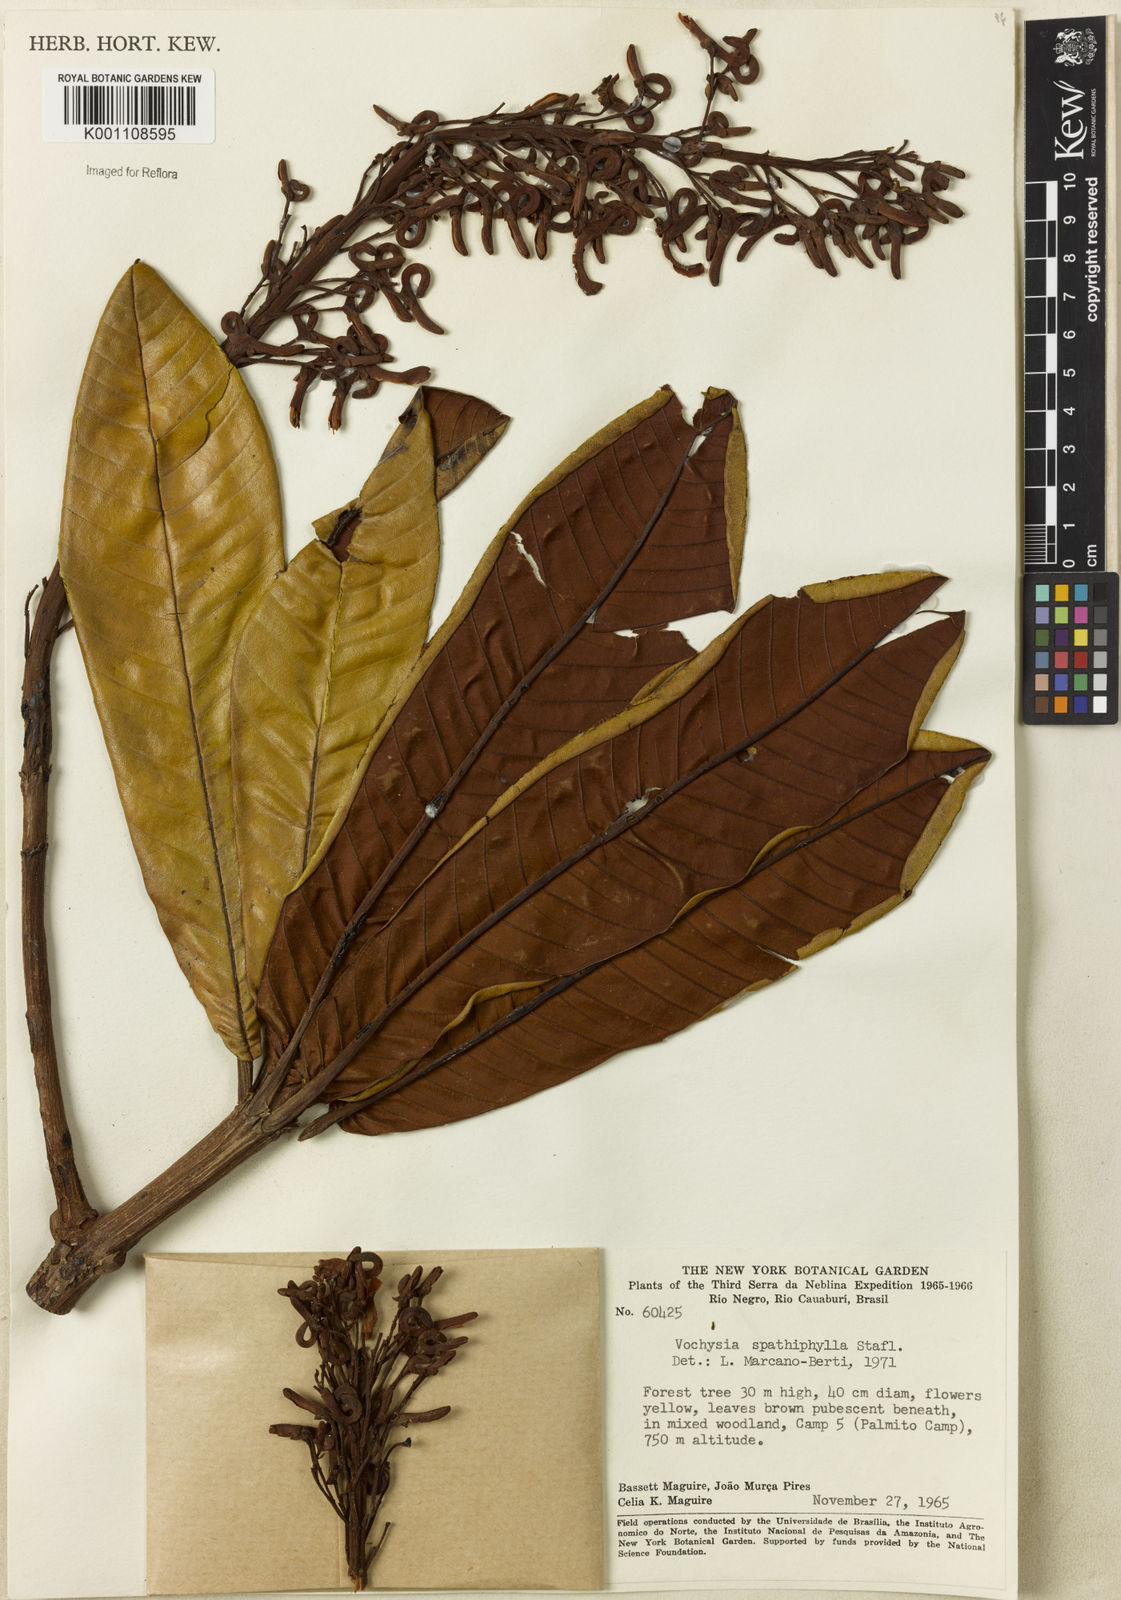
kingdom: Plantae
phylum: Tracheophyta
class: Magnoliopsida
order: Myrtales
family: Vochysiaceae
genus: Vochysia
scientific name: Vochysia spathiphylla
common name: Spathelikeleaf vochysia
